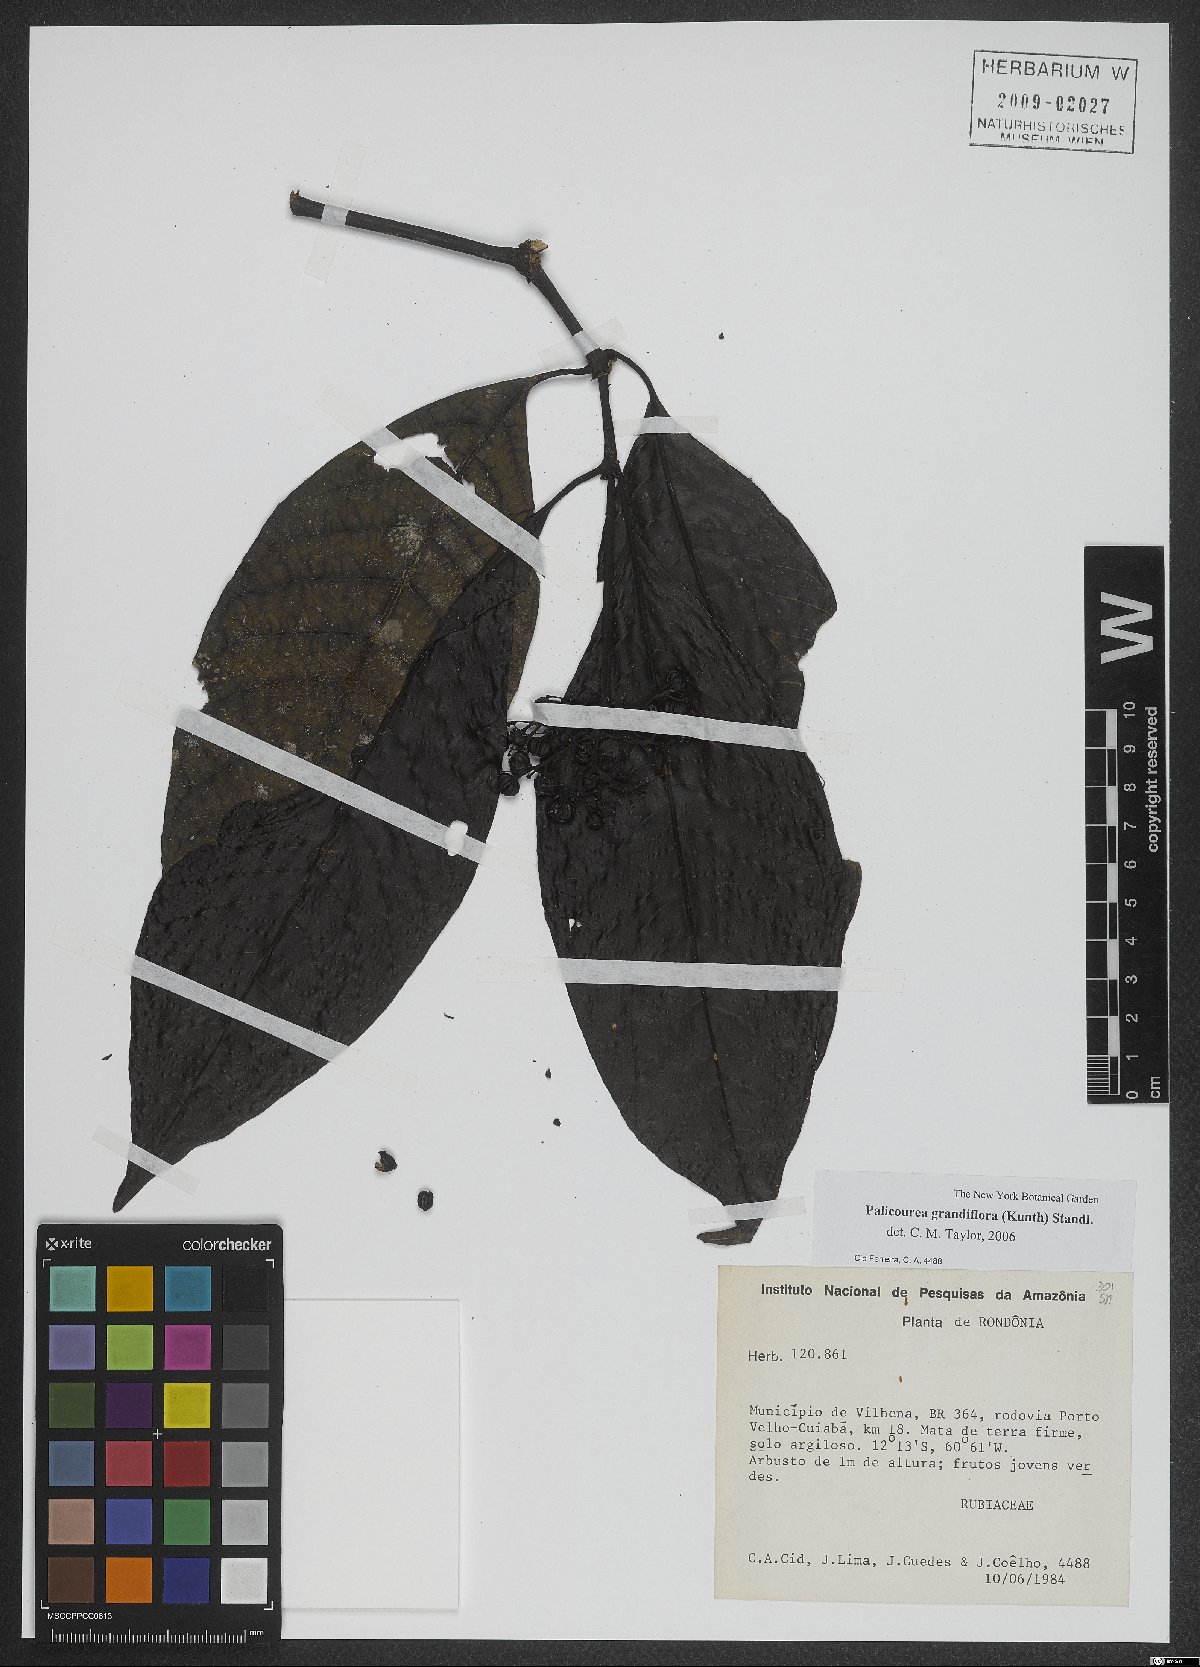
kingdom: Plantae
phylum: Tracheophyta
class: Magnoliopsida
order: Gentianales
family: Rubiaceae
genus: Palicourea
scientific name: Palicourea grandifolia
